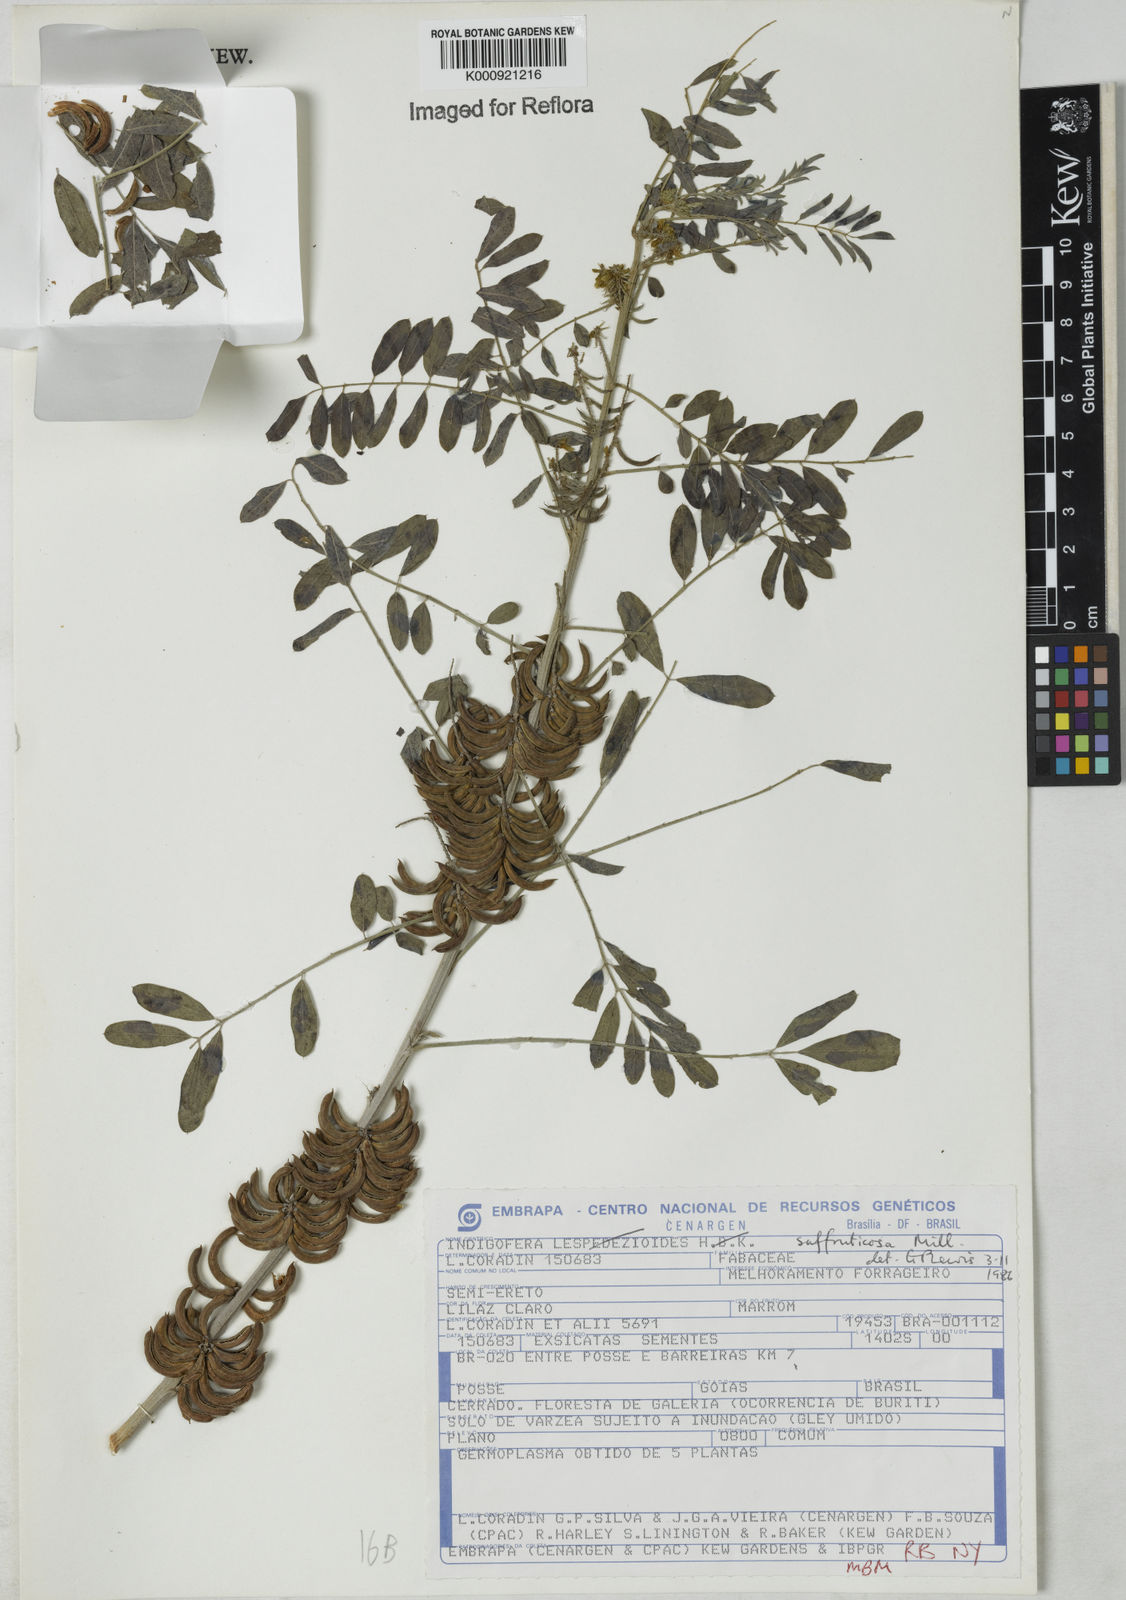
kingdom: Plantae
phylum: Tracheophyta
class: Magnoliopsida
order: Fabales
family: Fabaceae
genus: Indigofera
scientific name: Indigofera suffruticosa
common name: Anil de pasto
